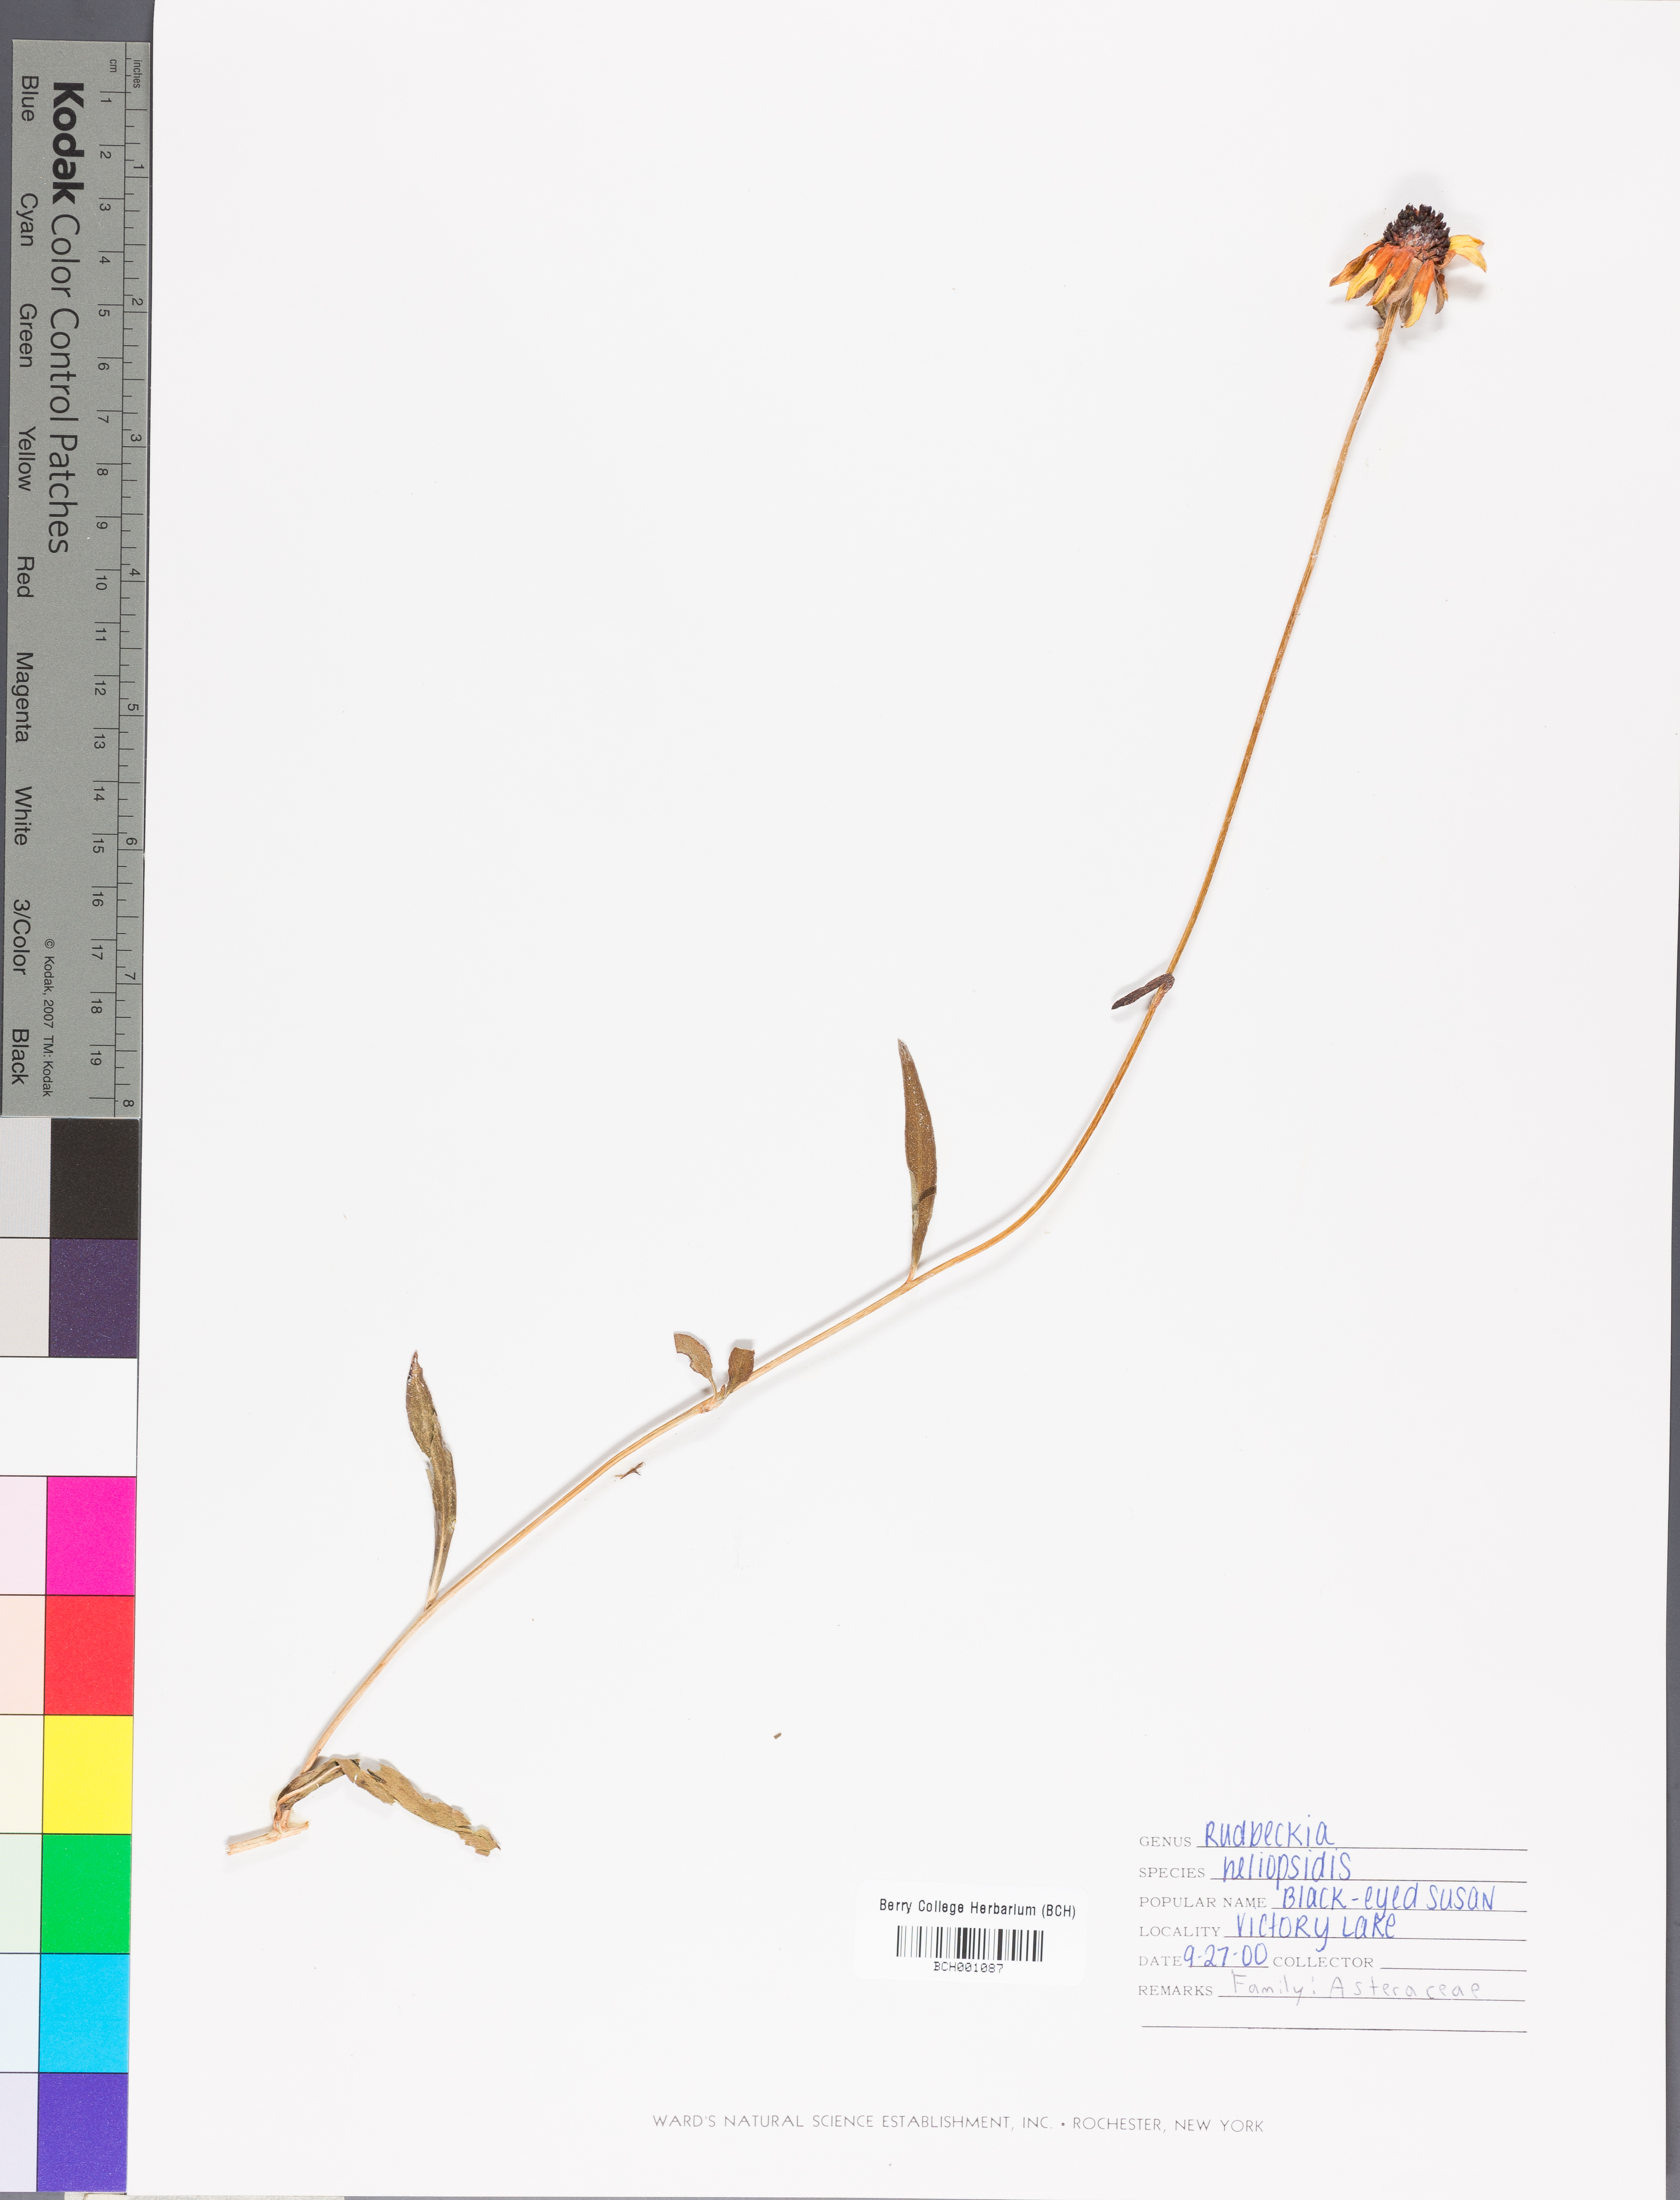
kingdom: Plantae
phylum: Tracheophyta
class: Magnoliopsida
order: Asterales
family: Asteraceae
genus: Rudbeckia
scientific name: Rudbeckia heliopsidis
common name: Little river black-eyed-susan
